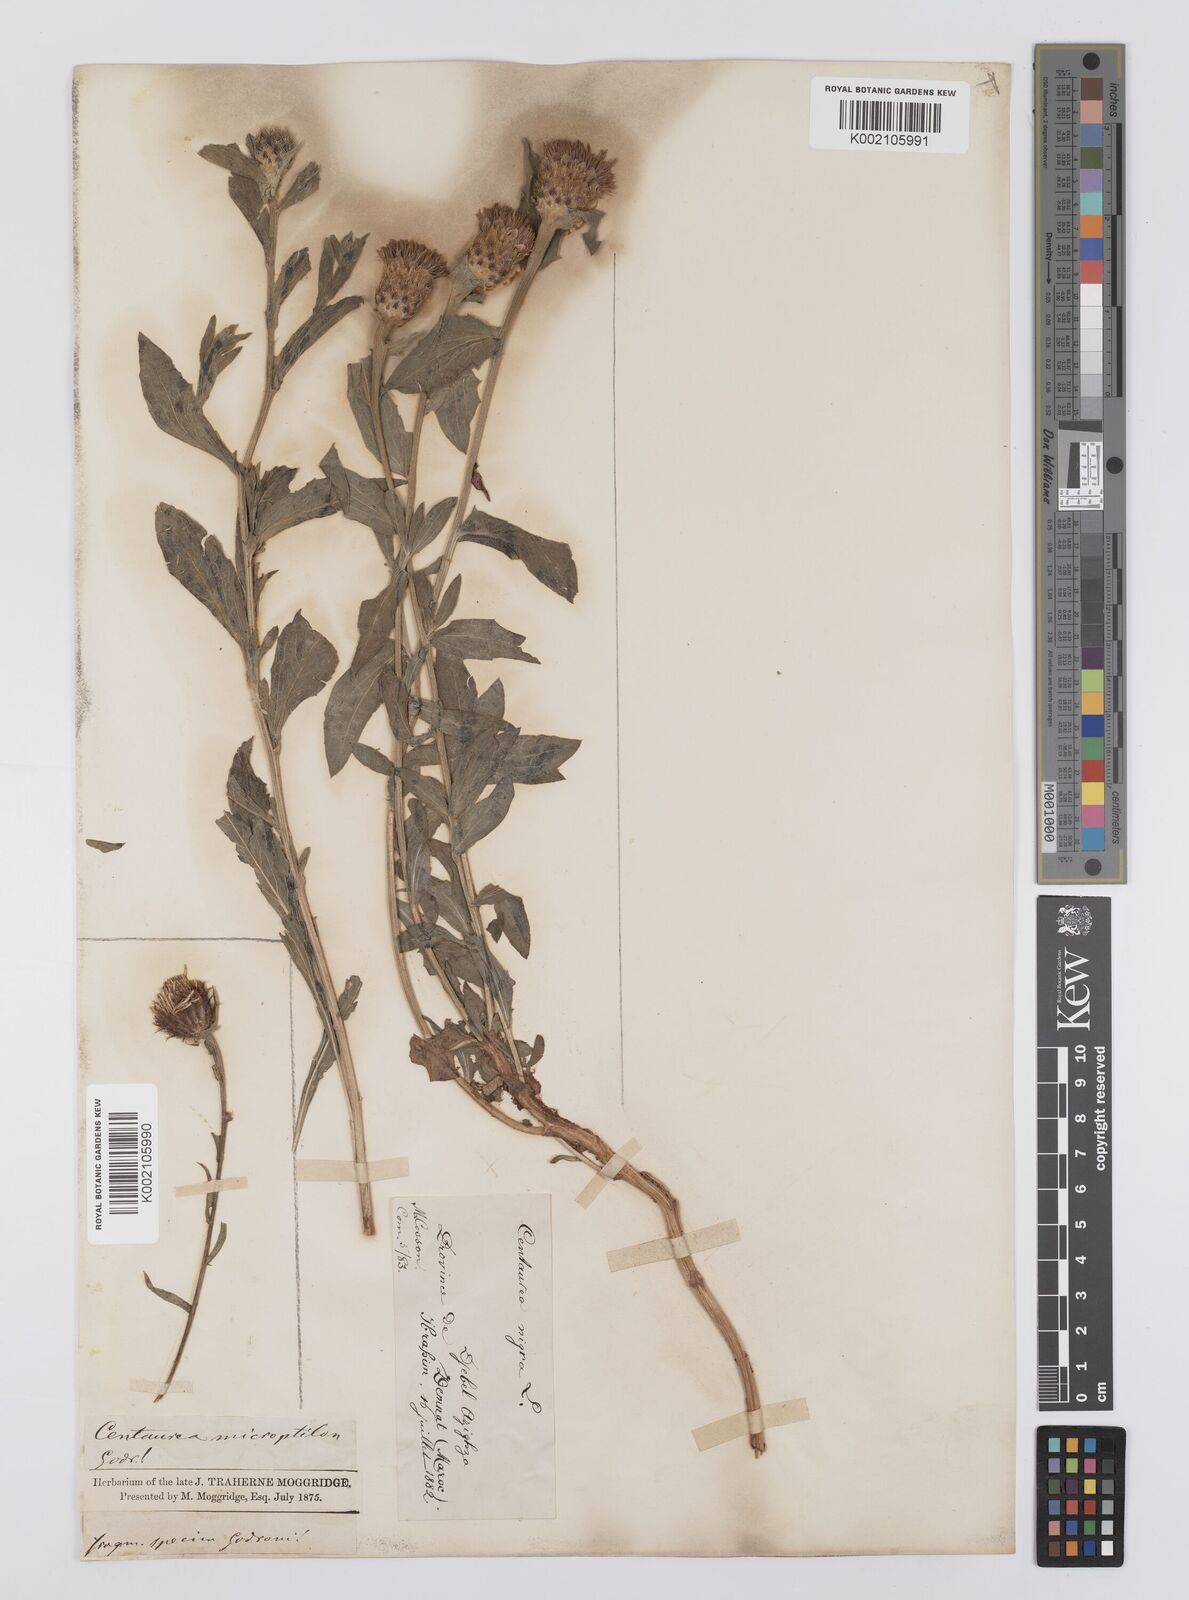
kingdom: Plantae
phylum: Tracheophyta
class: Magnoliopsida
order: Asterales
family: Asteraceae
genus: Centaurea
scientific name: Centaurea nigra
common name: Lesser knapweed
